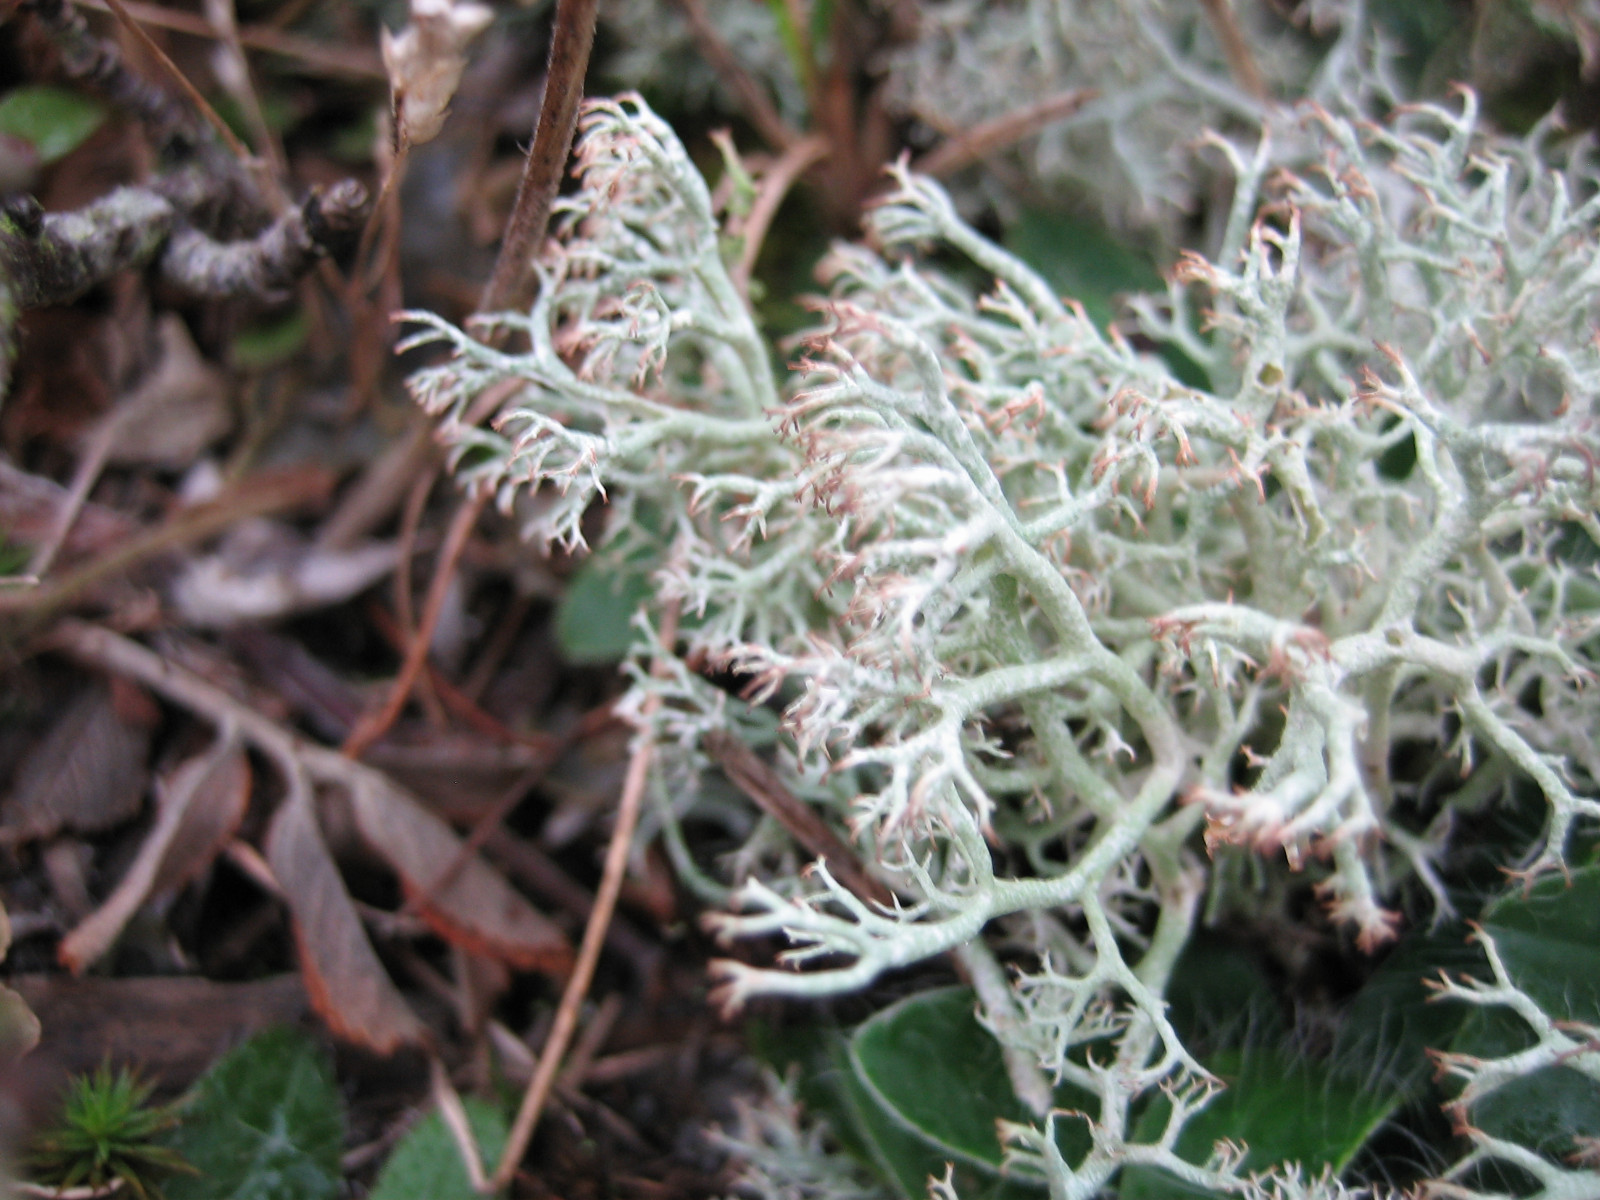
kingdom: Fungi
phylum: Ascomycota
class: Lecanoromycetes
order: Lecanorales
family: Cladoniaceae
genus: Cladonia
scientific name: Cladonia ciliata
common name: spinkel rensdyrlav
